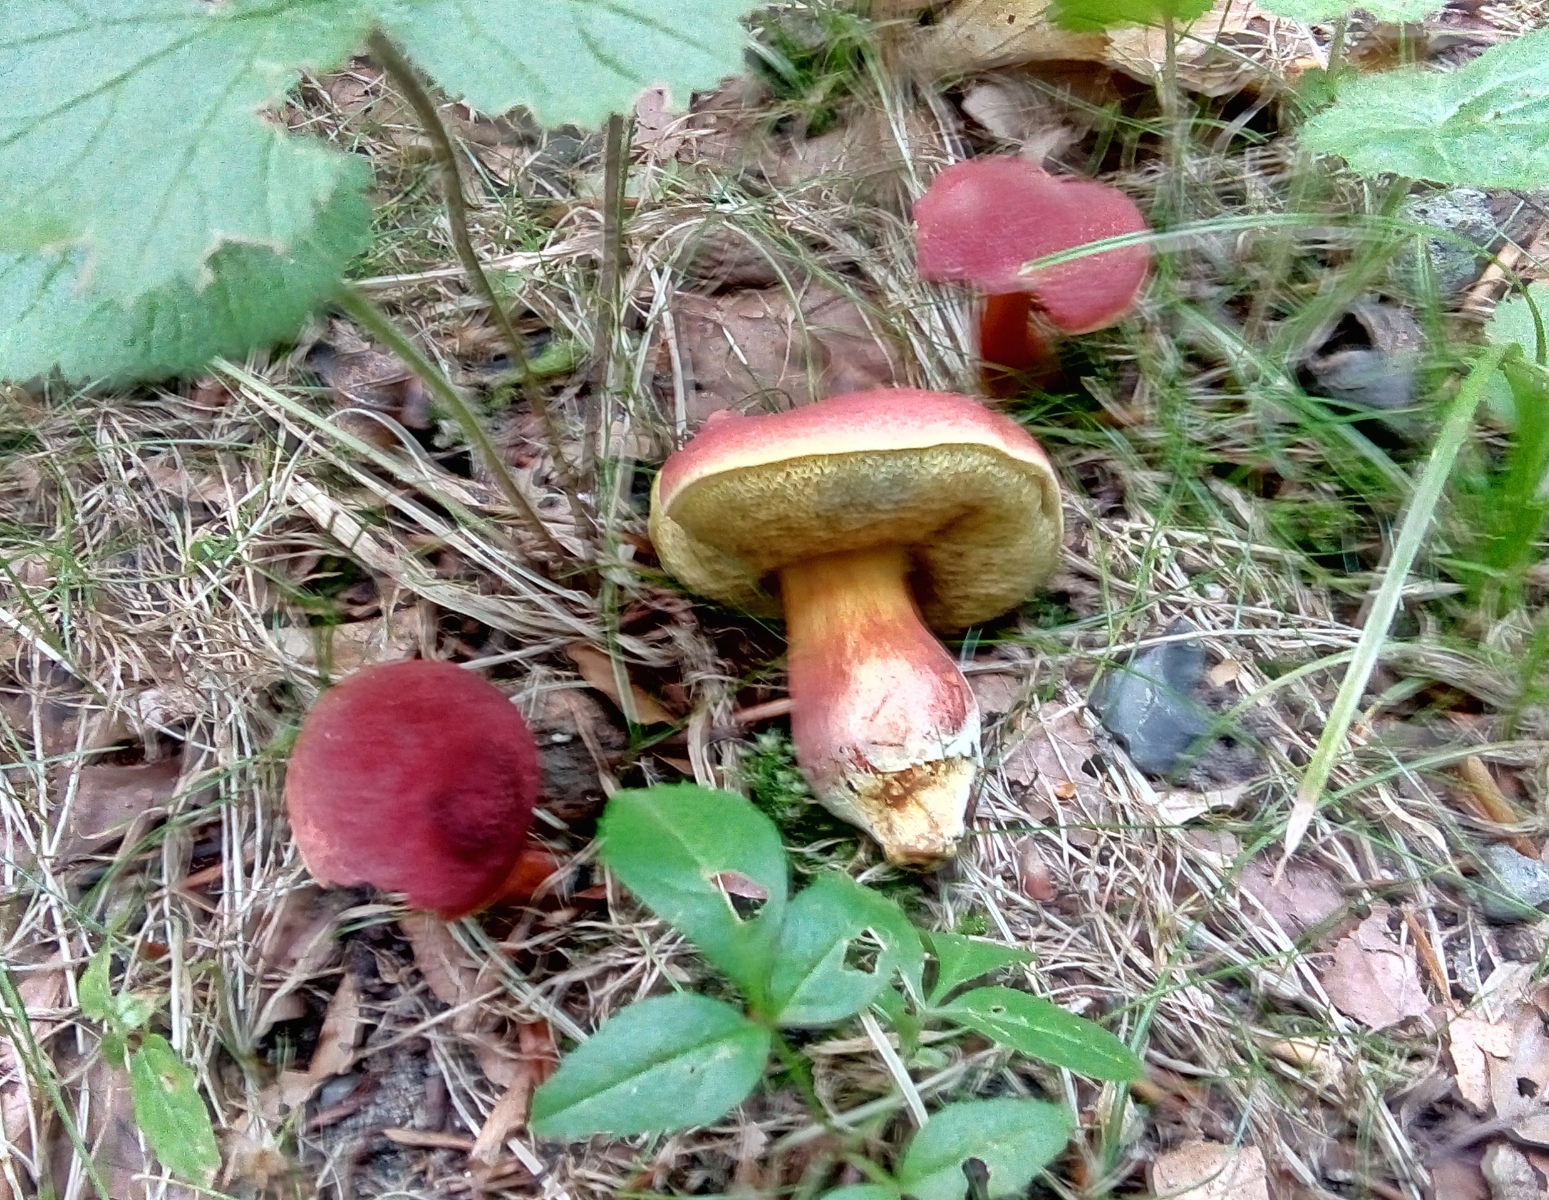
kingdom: Fungi
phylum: Basidiomycota
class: Agaricomycetes
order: Boletales
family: Boletaceae
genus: Hortiboletus
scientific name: Hortiboletus rubellus
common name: blodrød rørhat
